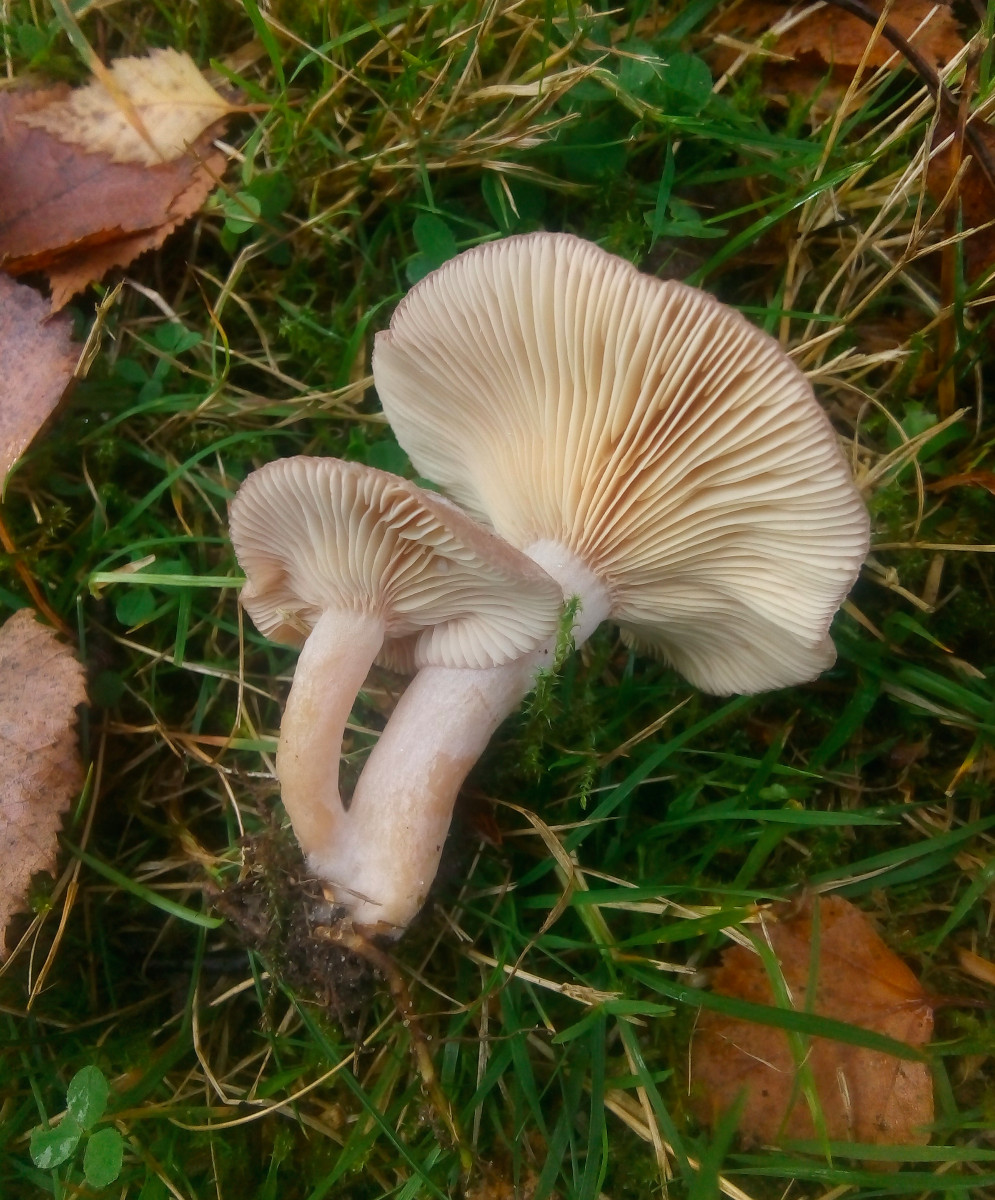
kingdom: Fungi
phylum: Basidiomycota
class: Agaricomycetes
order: Russulales
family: Russulaceae
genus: Lactarius
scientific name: Lactarius glyciosmus
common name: kokos-mælkehat
